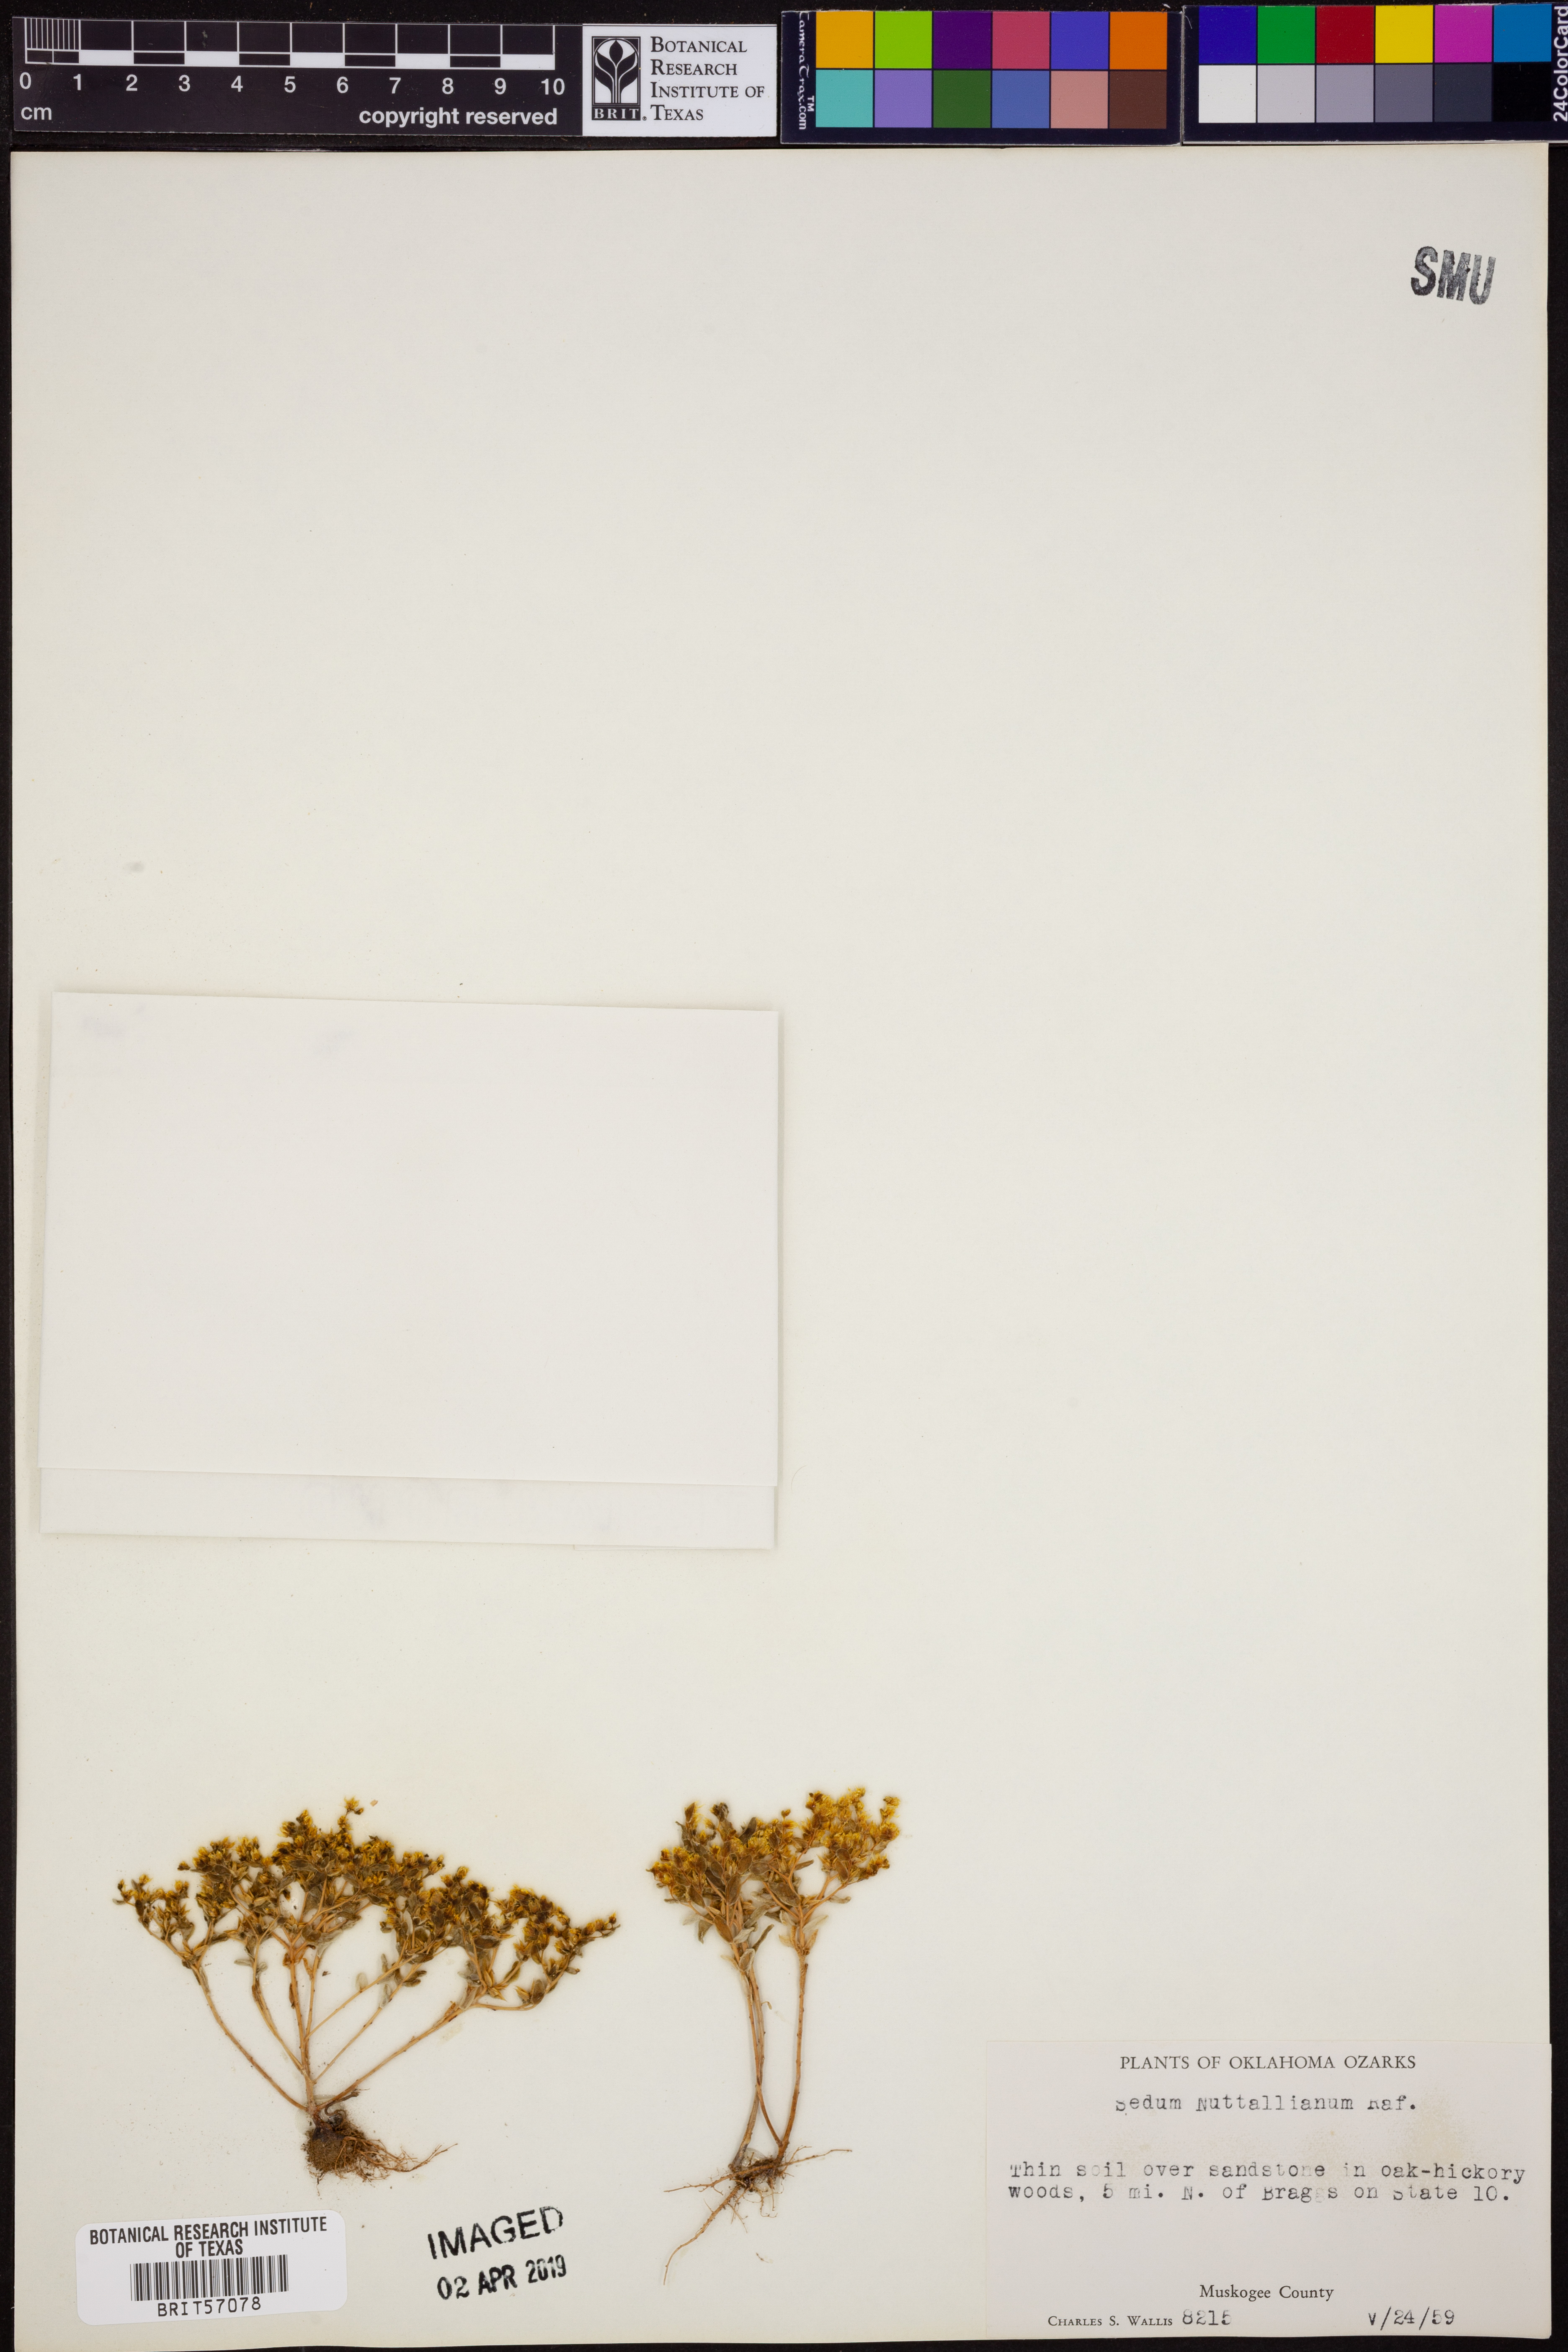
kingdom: Plantae
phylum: Tracheophyta
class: Magnoliopsida
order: Saxifragales
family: Crassulaceae
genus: Sedum
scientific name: Sedum nuttallii
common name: Yellow stonecrop
